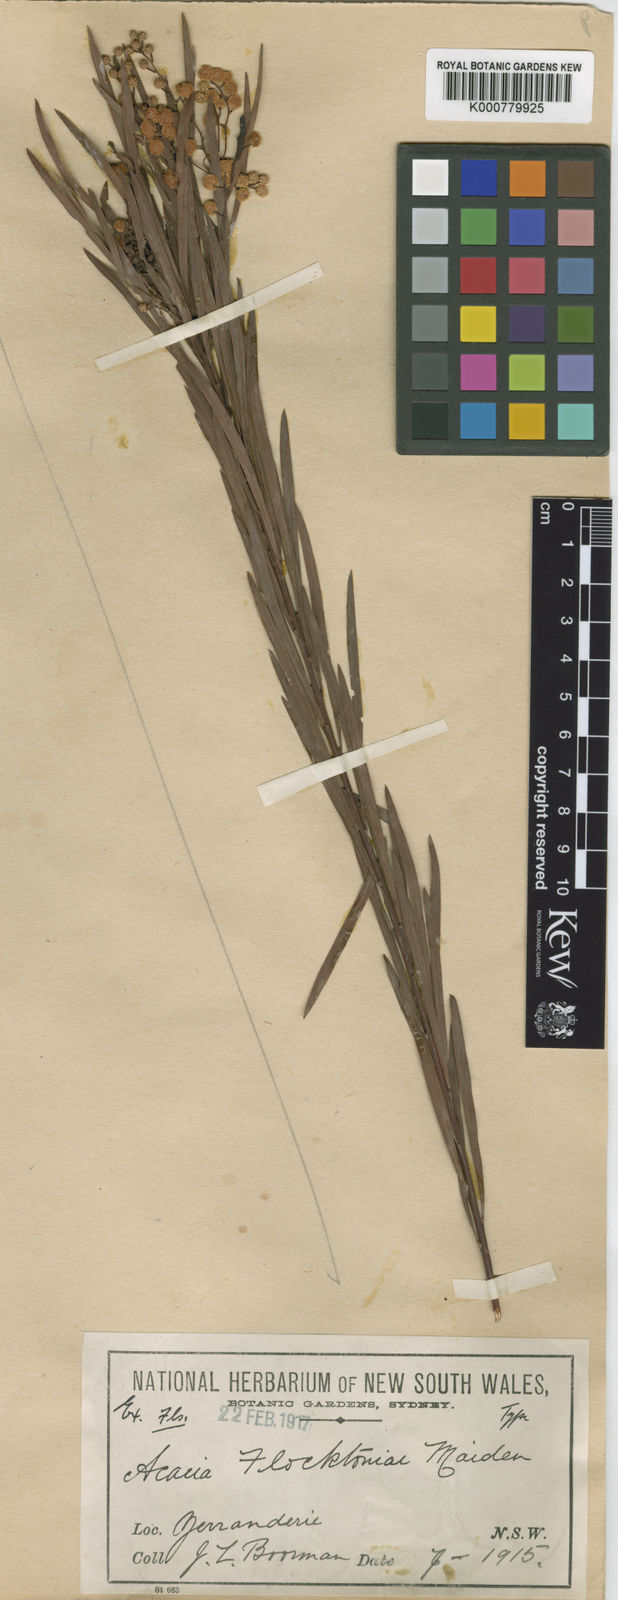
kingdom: Plantae
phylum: Tracheophyta
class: Magnoliopsida
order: Fabales
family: Fabaceae
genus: Acacia
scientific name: Acacia flocktoniae
